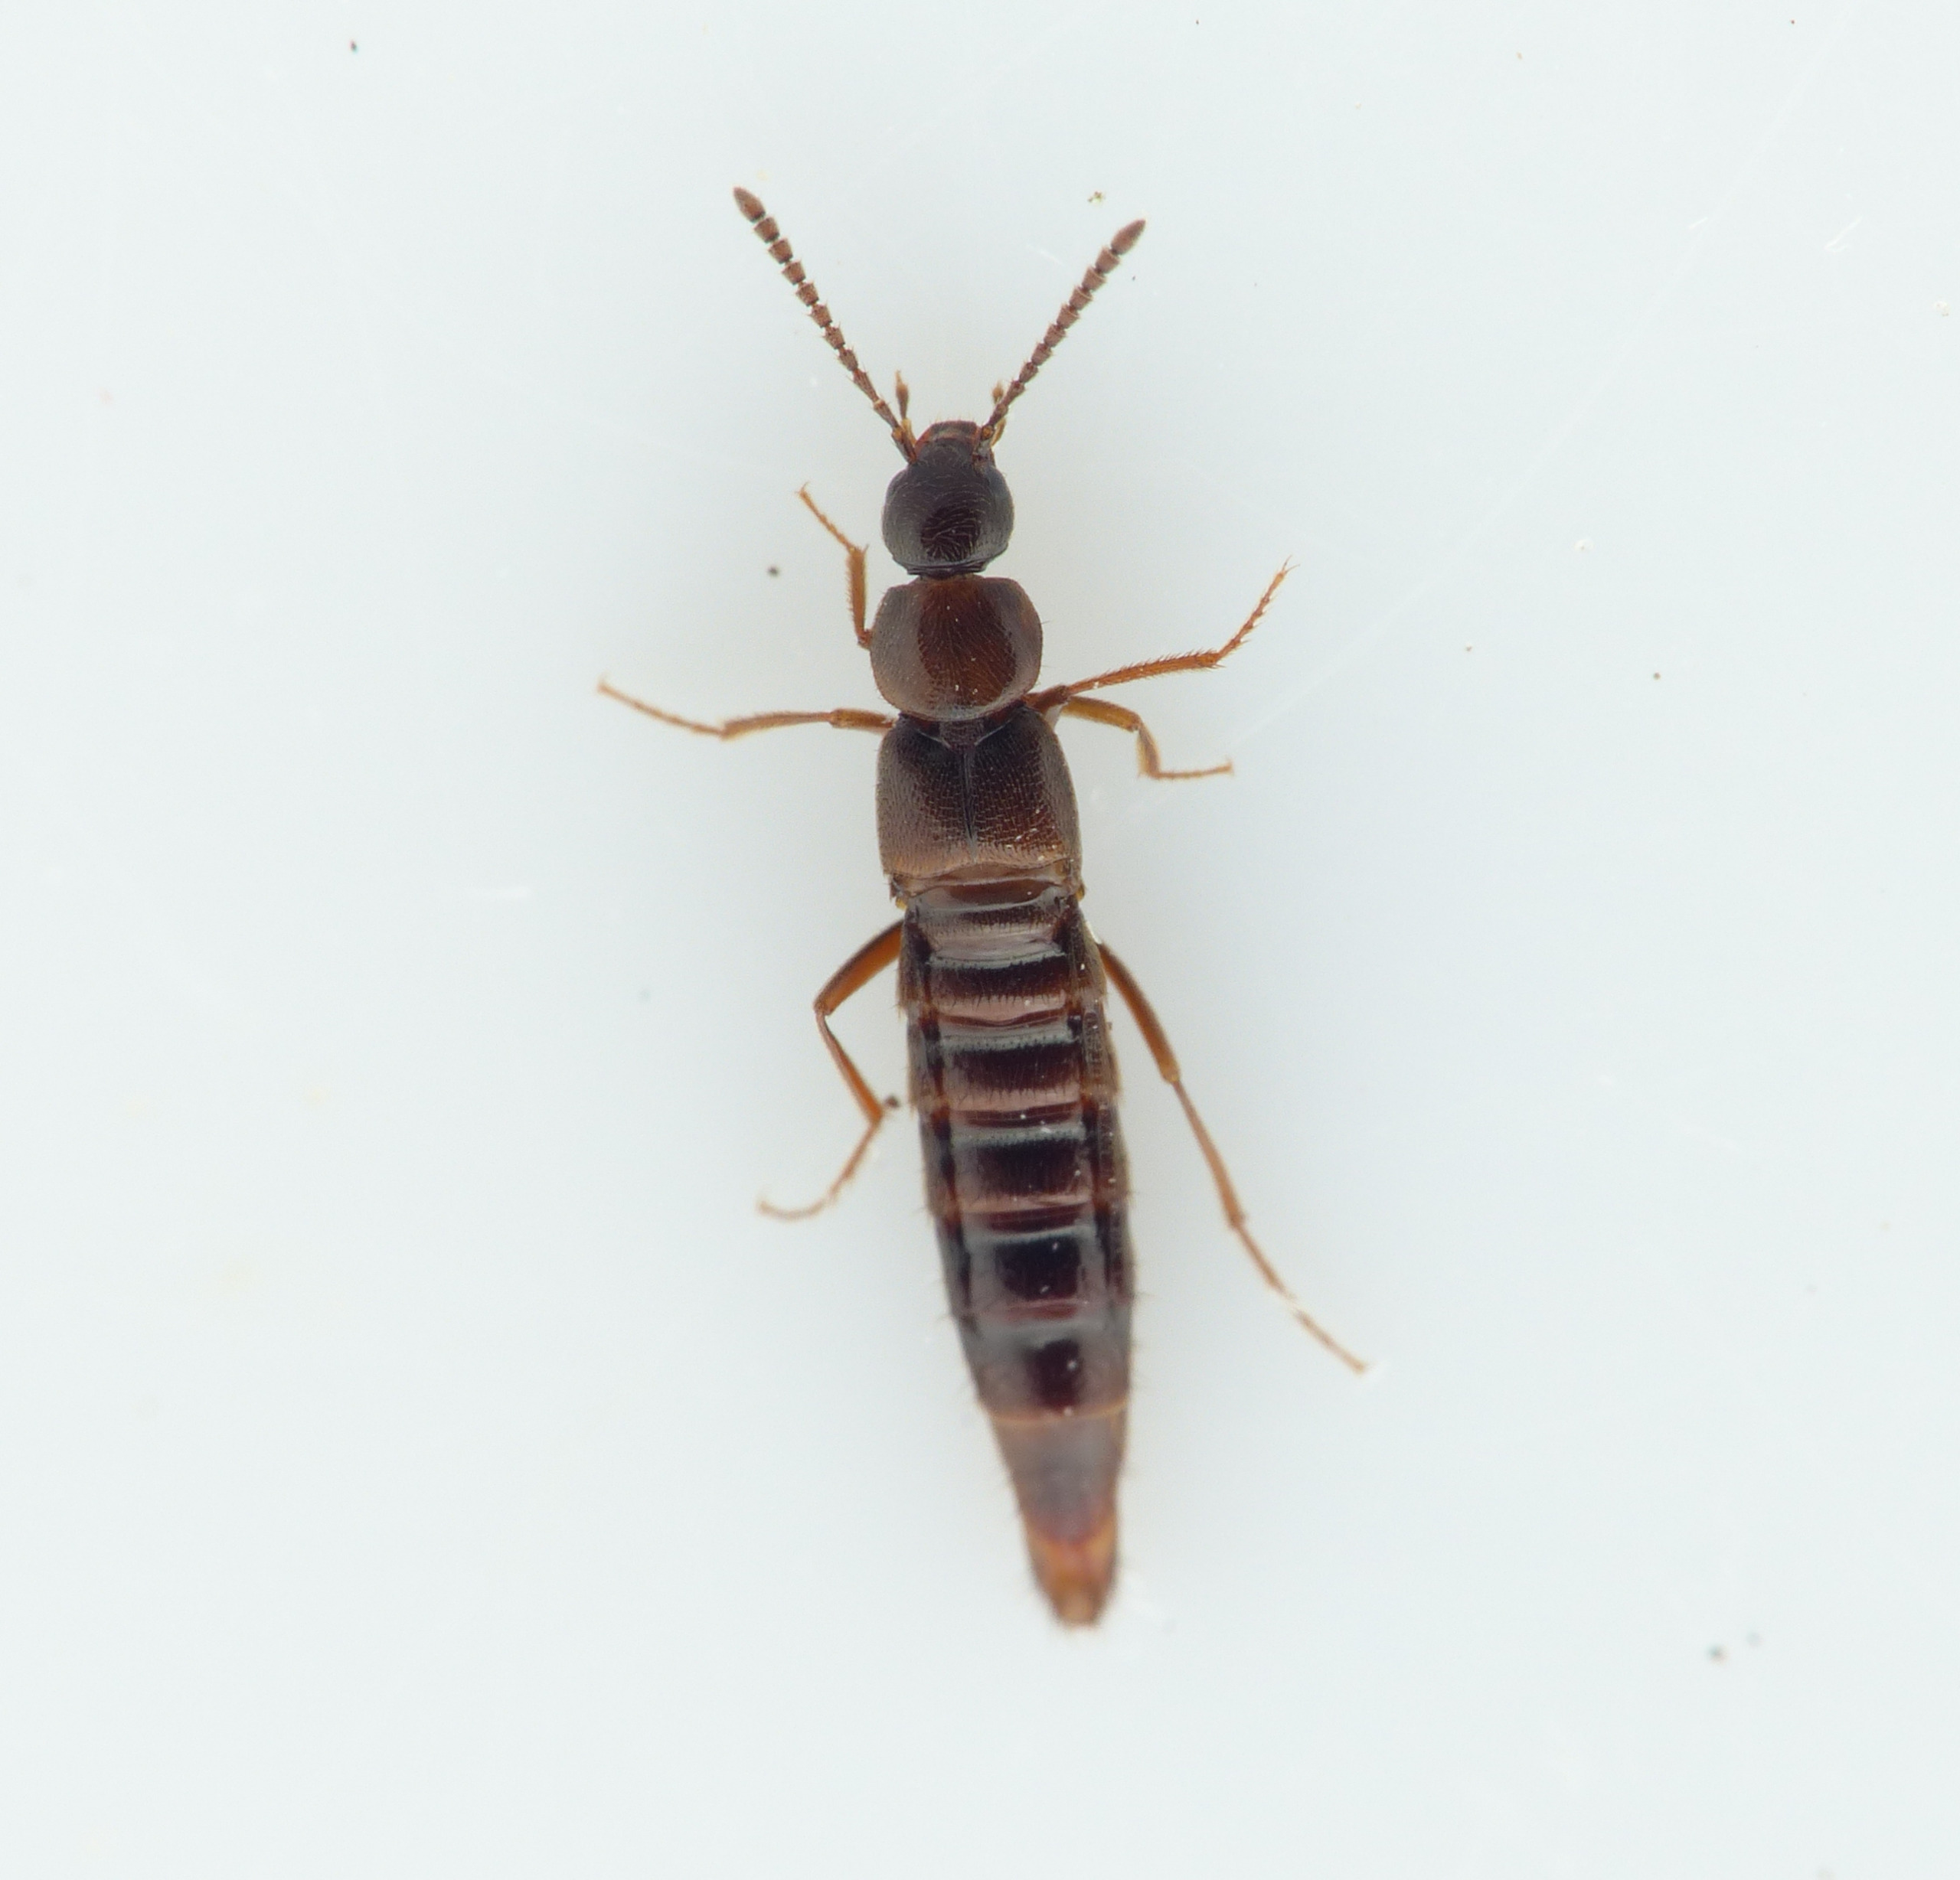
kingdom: Animalia
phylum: Arthropoda
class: Insecta
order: Coleoptera
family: Staphylinidae
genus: Aleochara
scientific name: Aleochara spadicea
